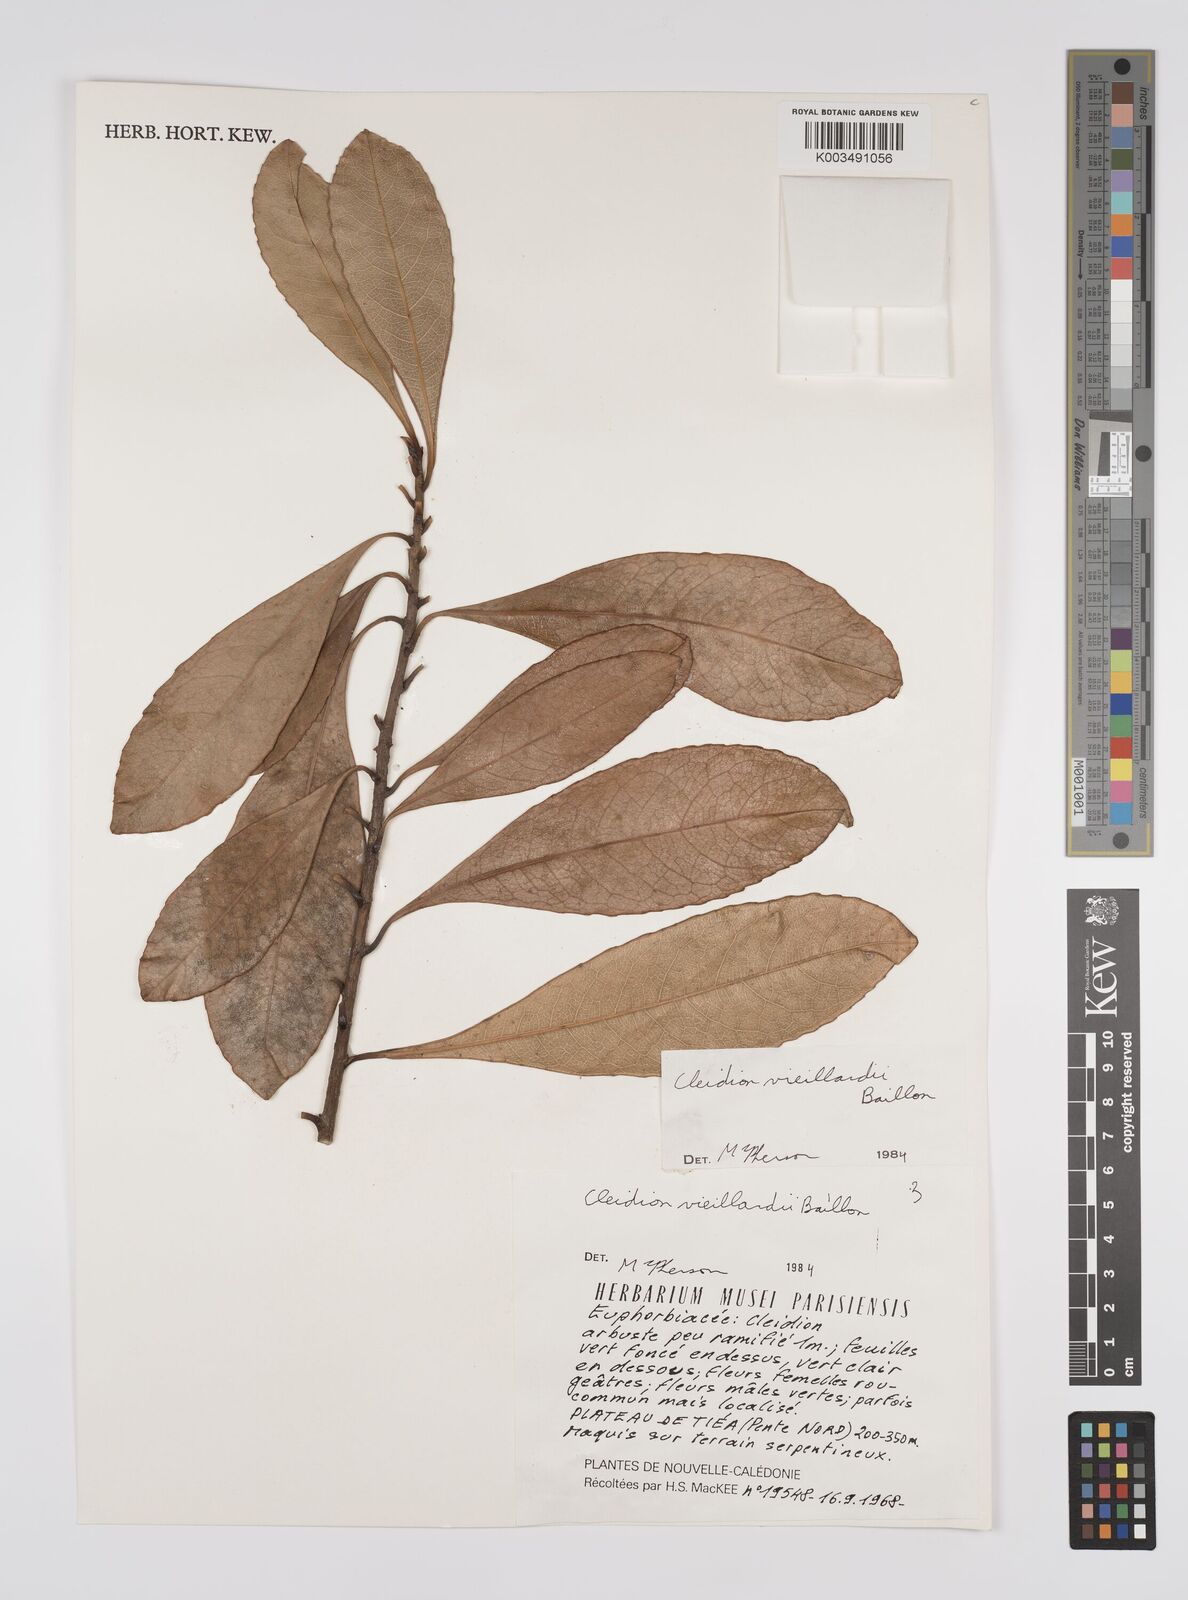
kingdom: Plantae
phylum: Tracheophyta
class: Magnoliopsida
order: Malpighiales
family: Euphorbiaceae
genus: Cleidion
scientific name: Cleidion vieillardii
